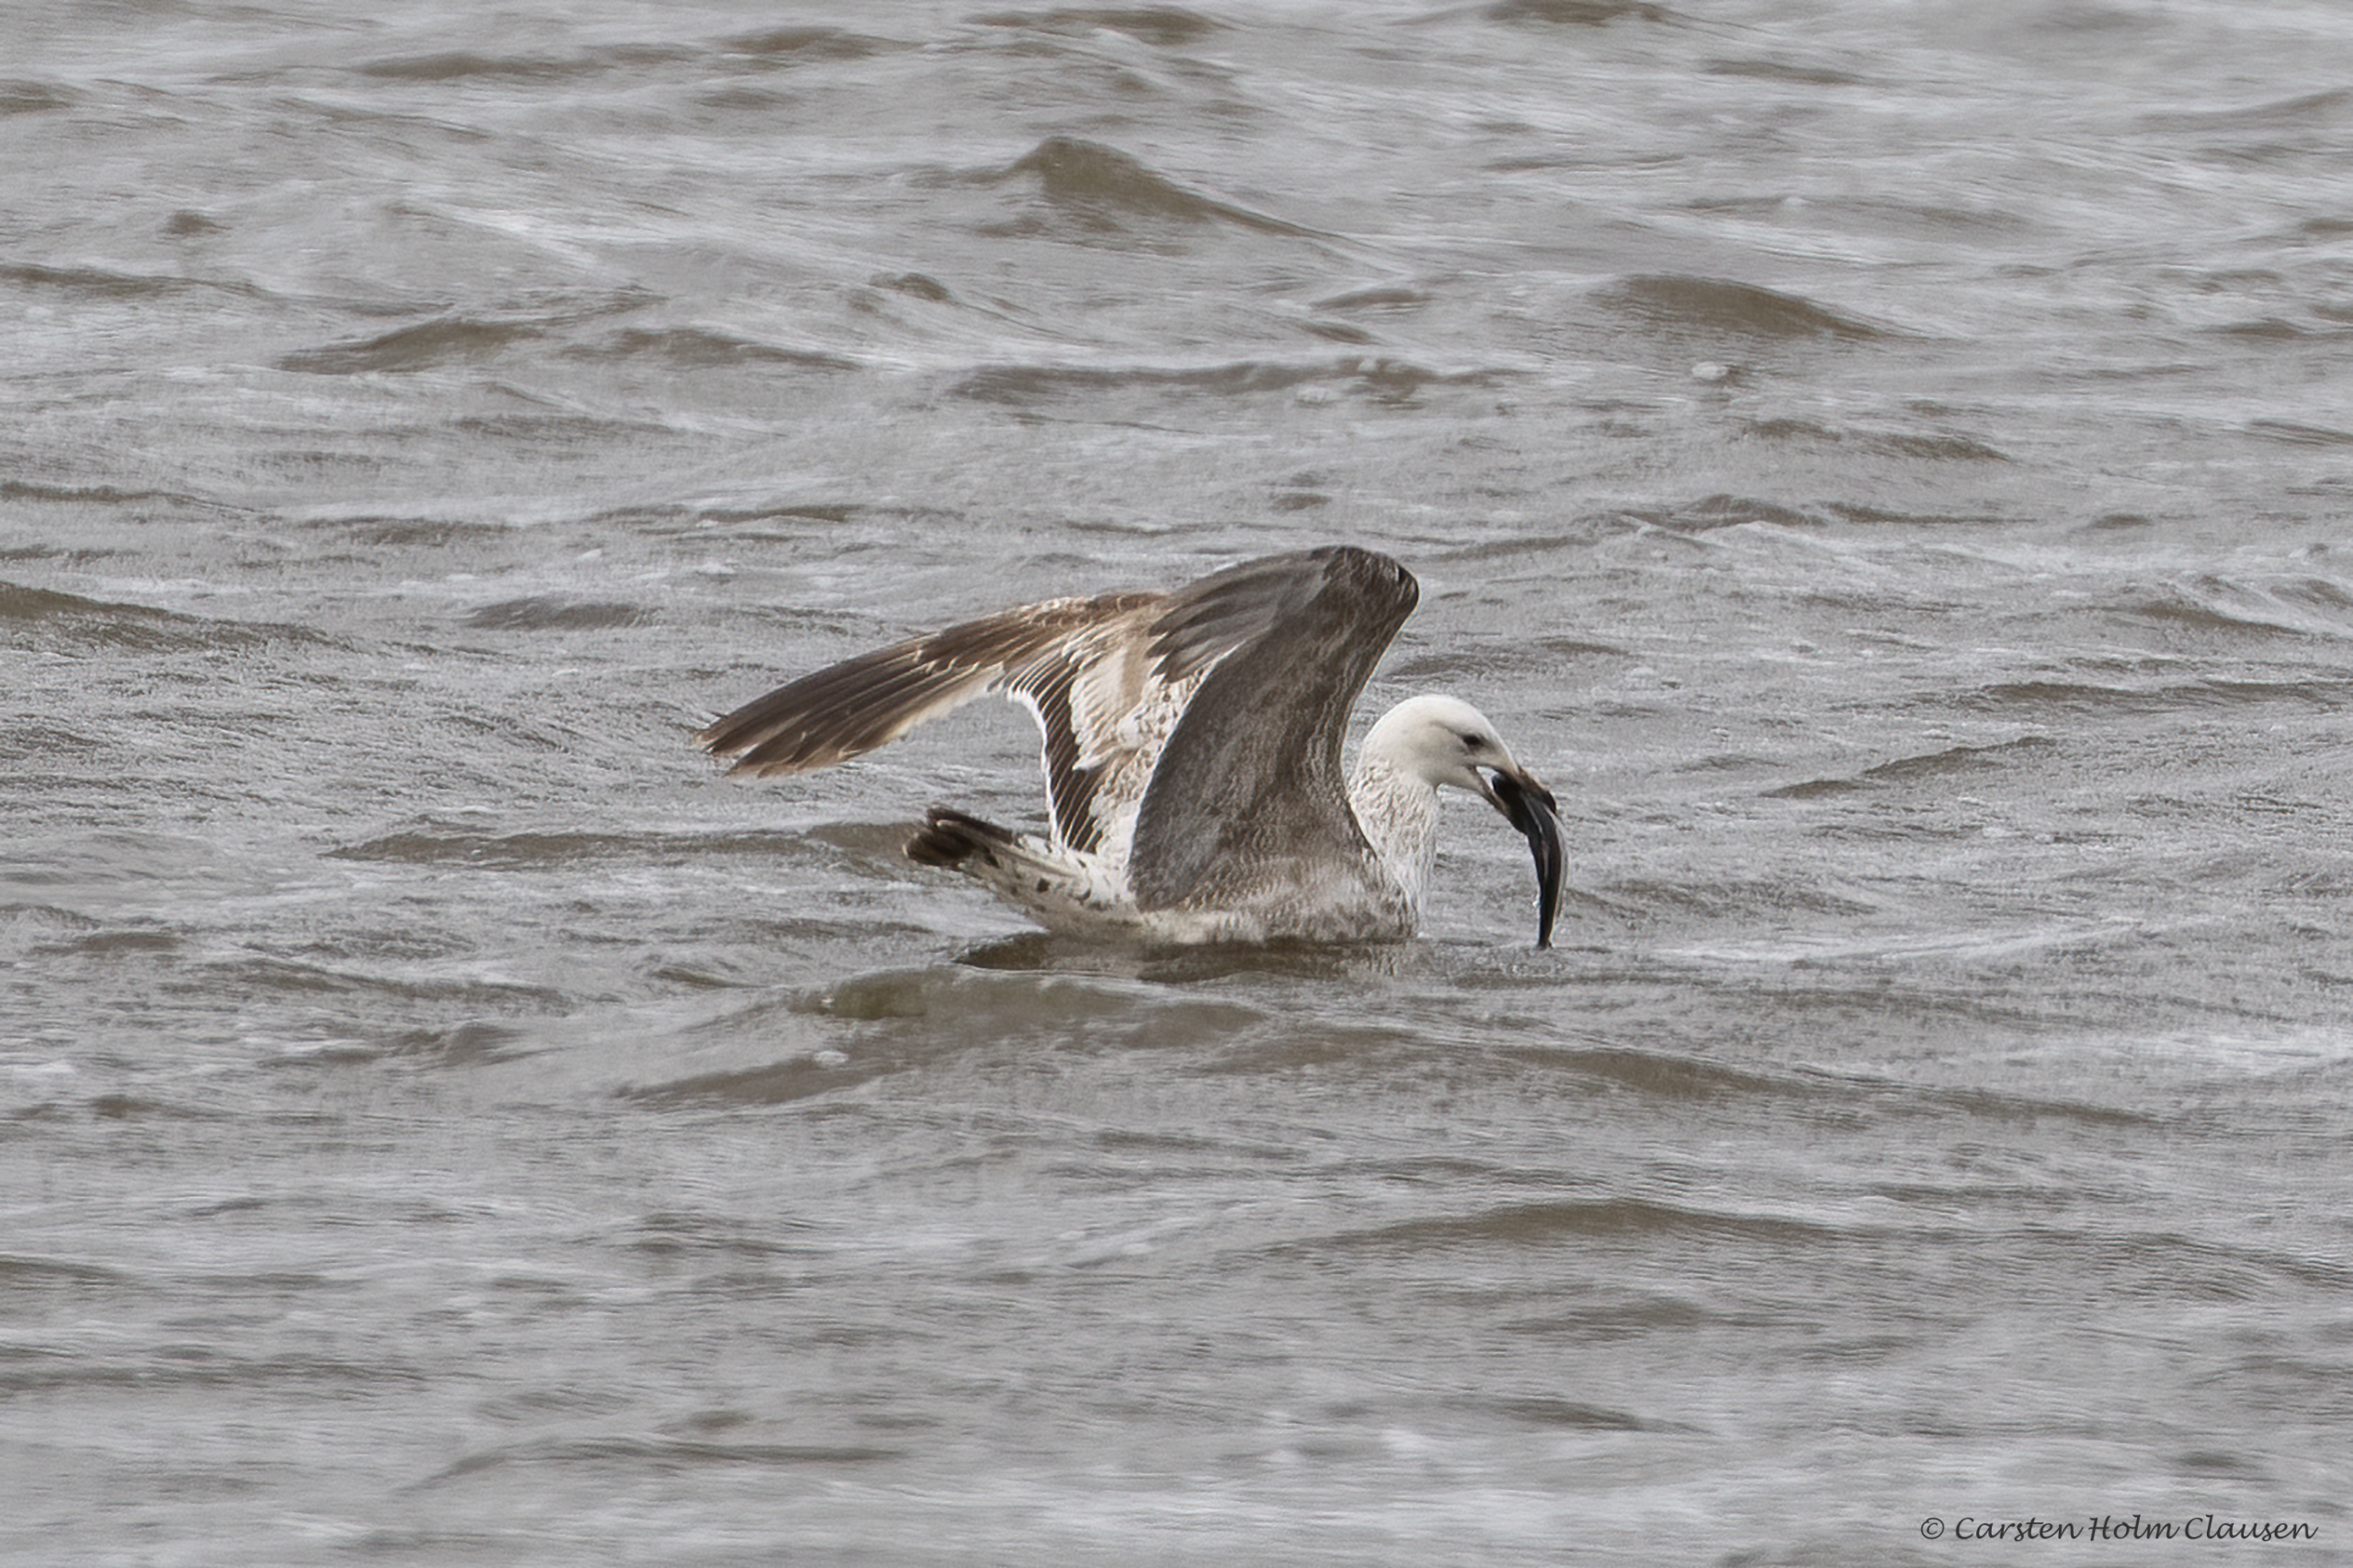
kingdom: Animalia
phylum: Chordata
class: Aves
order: Charadriiformes
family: Laridae
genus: Larus
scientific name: Larus argentatus
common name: Sølvmåge
